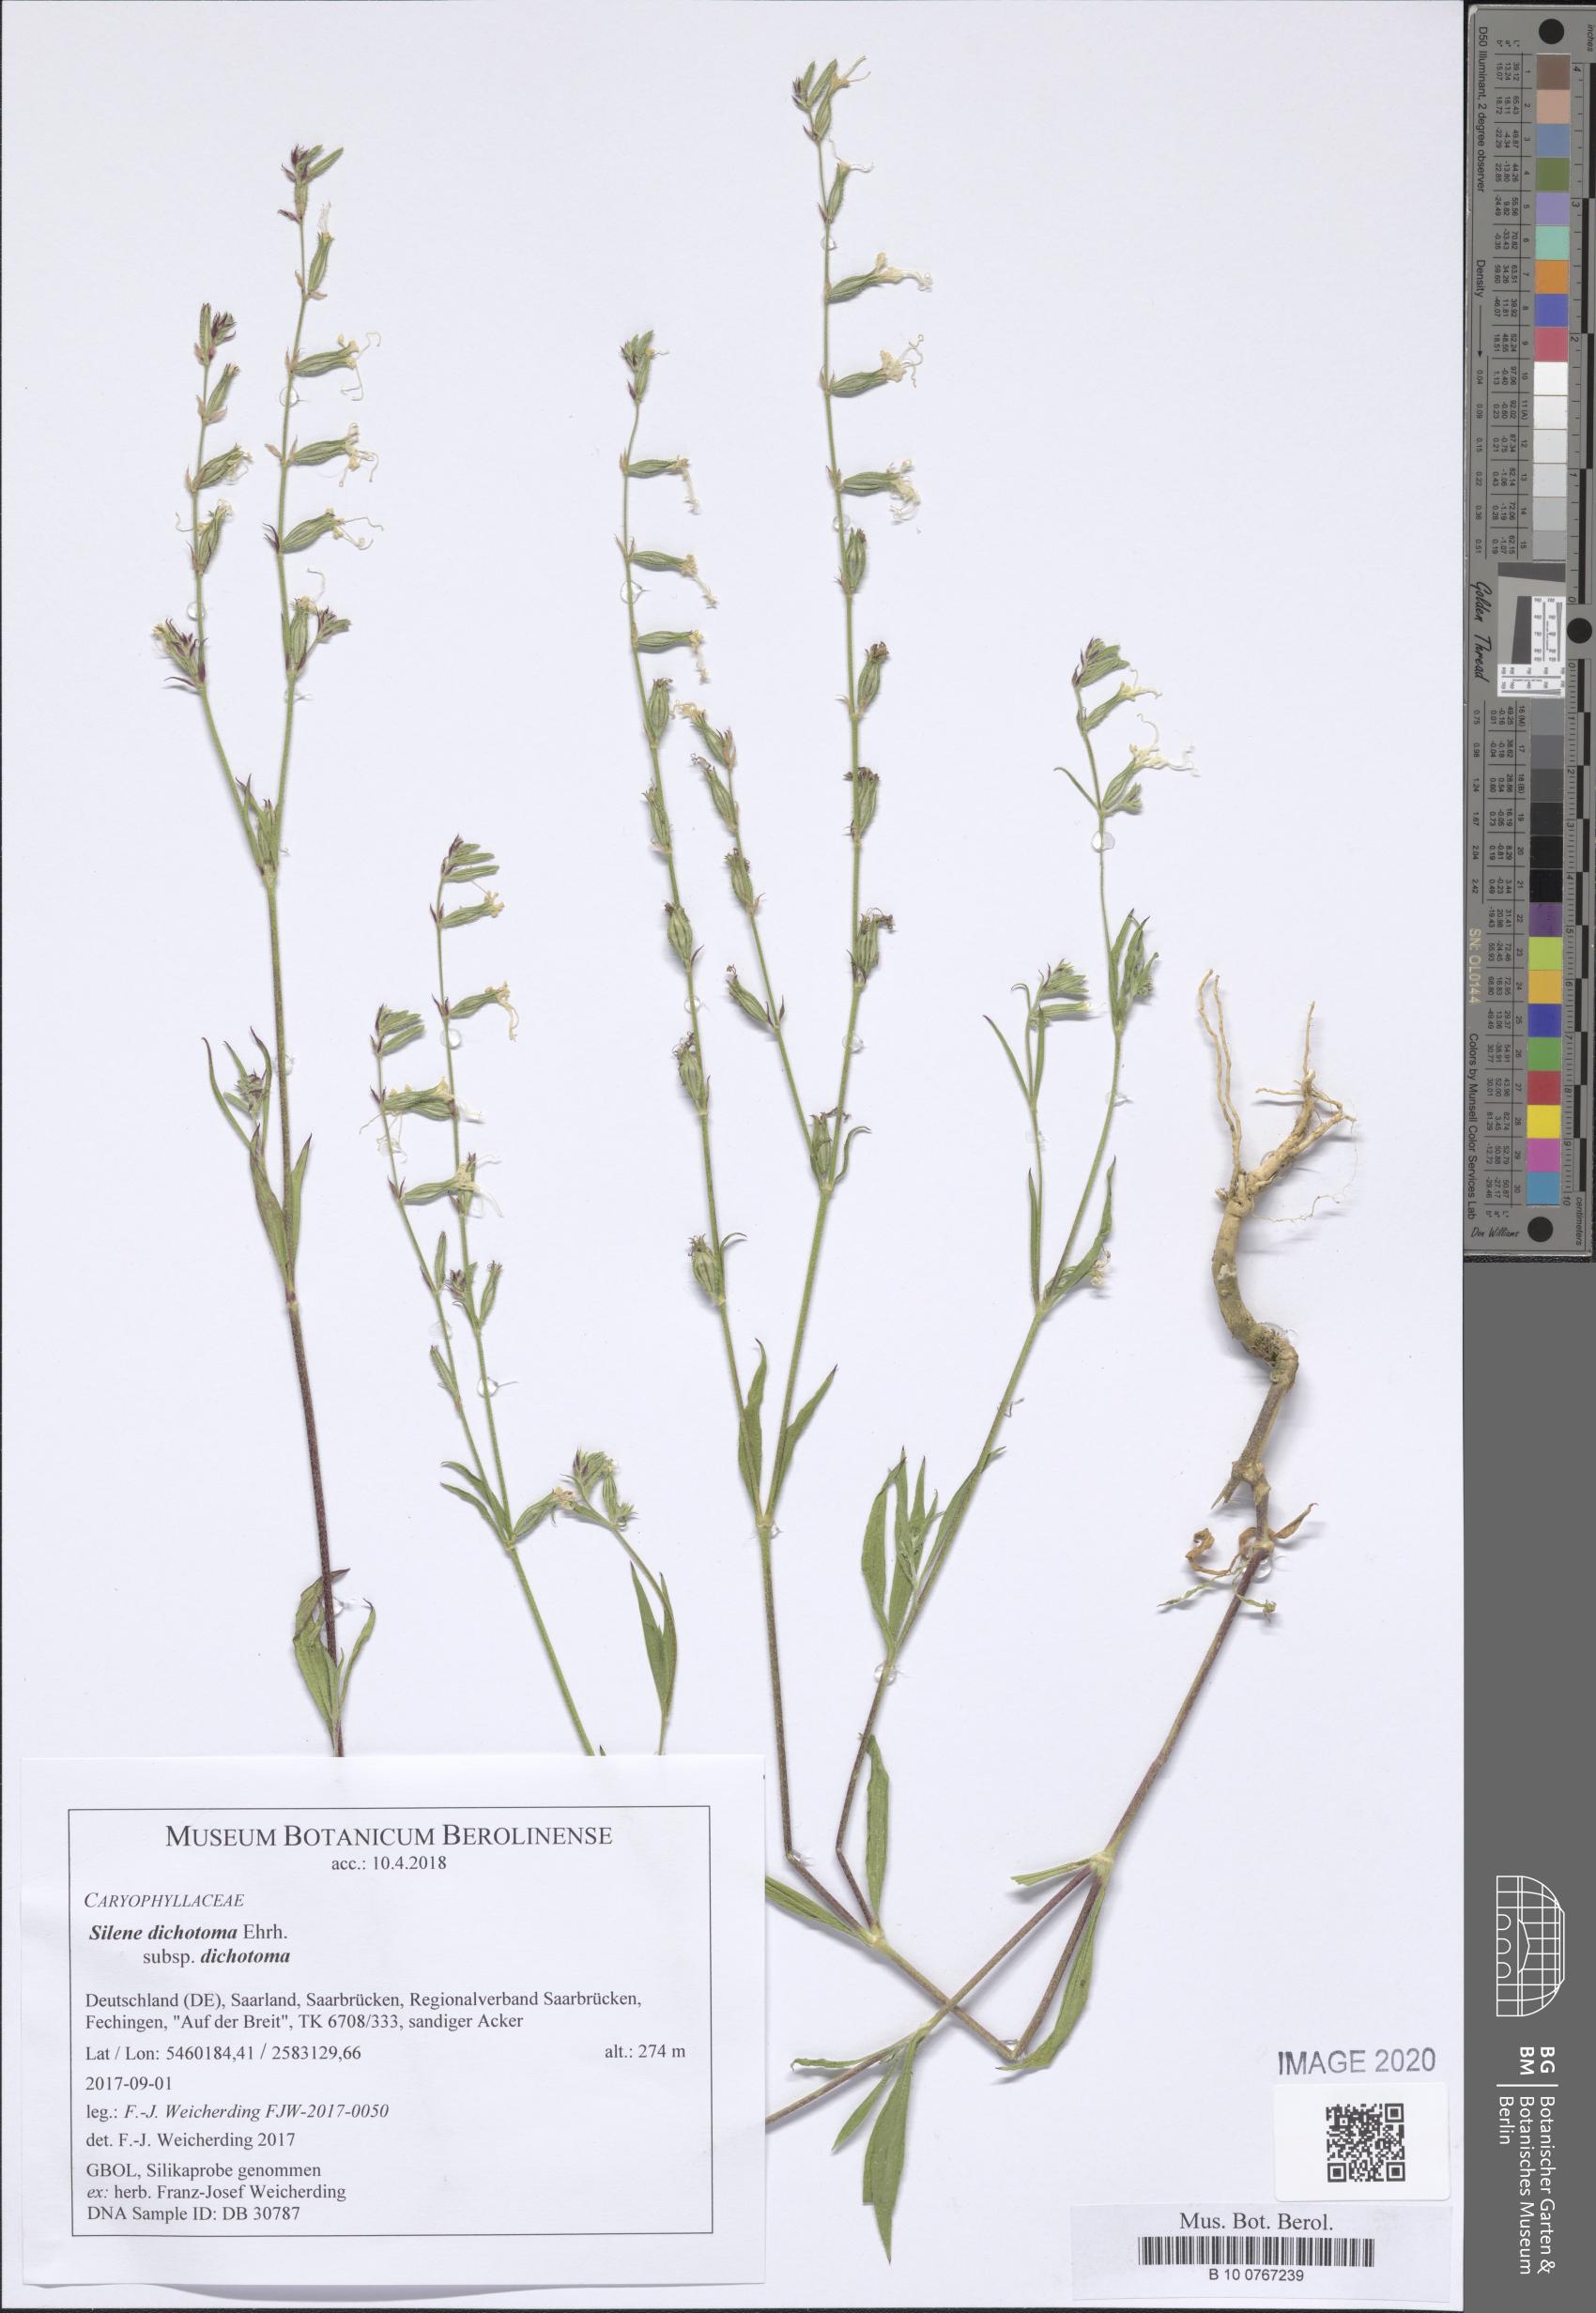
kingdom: Plantae
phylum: Tracheophyta
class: Magnoliopsida
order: Caryophyllales
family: Caryophyllaceae
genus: Silene
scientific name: Silene dichotoma
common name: Forked catchfly
